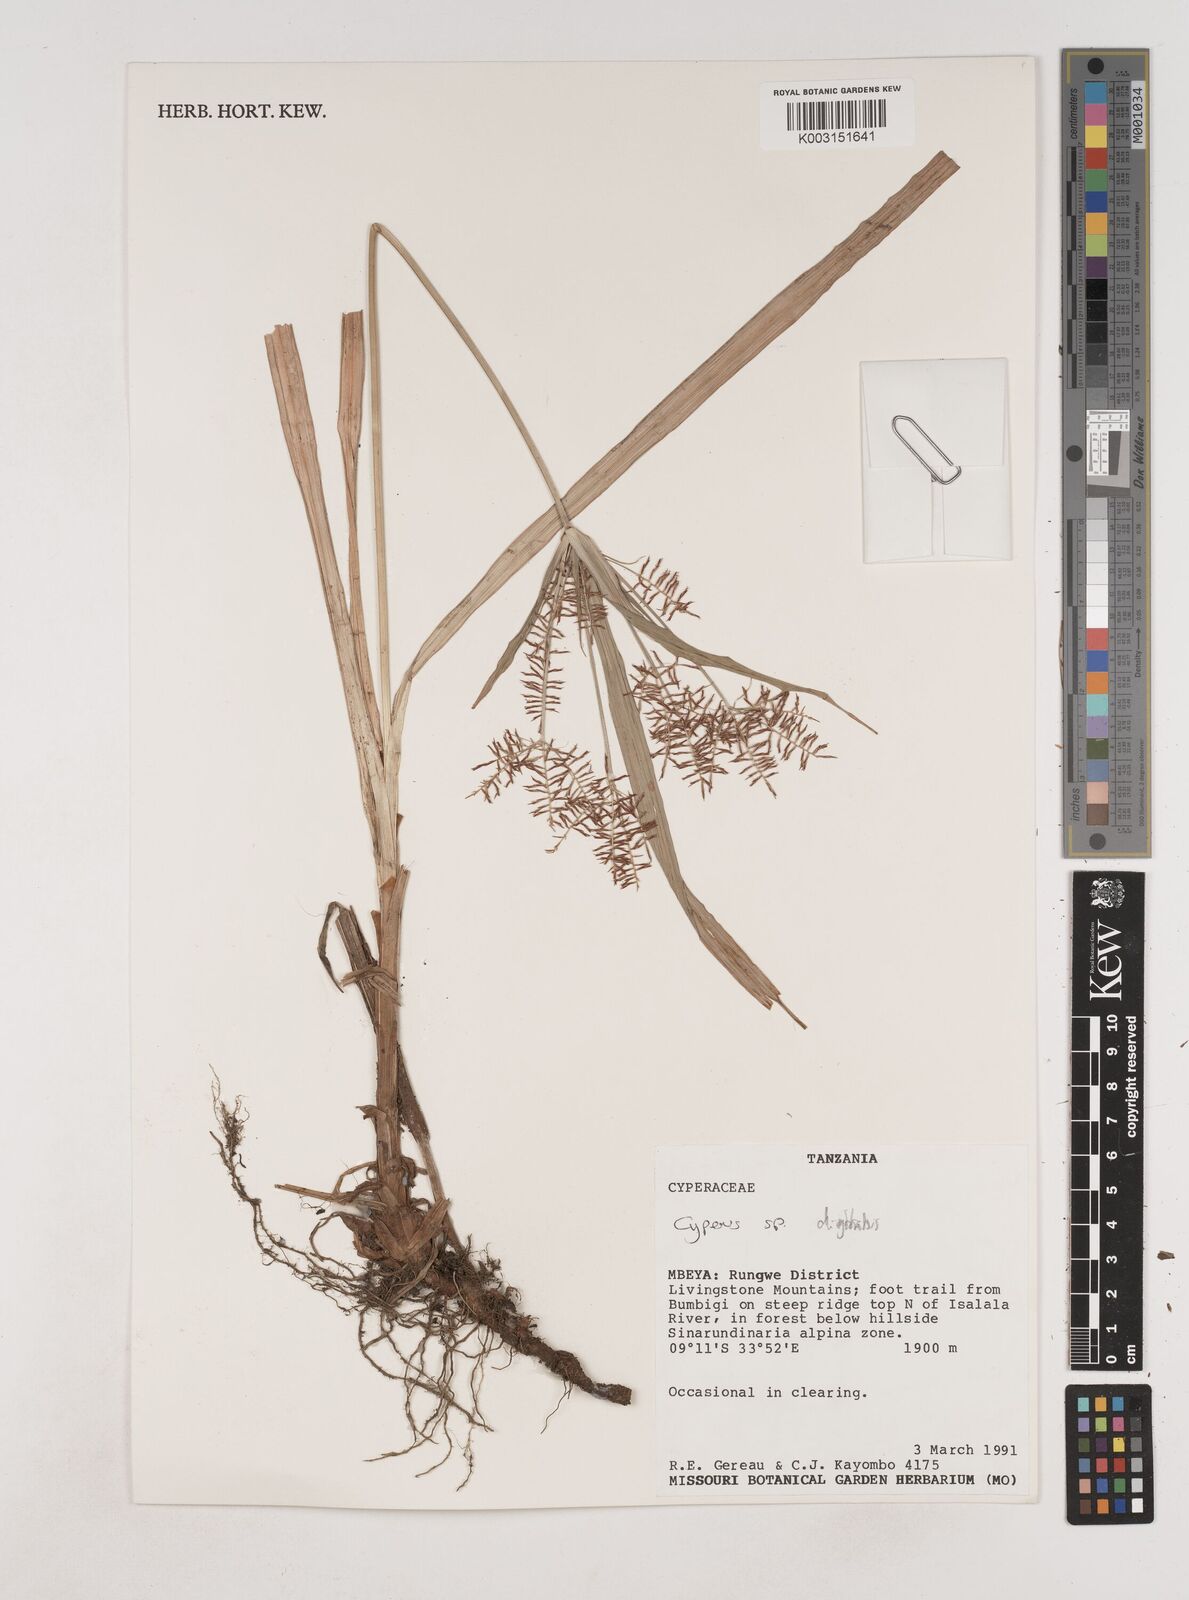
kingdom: Plantae
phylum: Tracheophyta
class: Liliopsida
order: Poales
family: Cyperaceae
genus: Cyperus
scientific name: Cyperus digitatus
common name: Finger flatsedge
